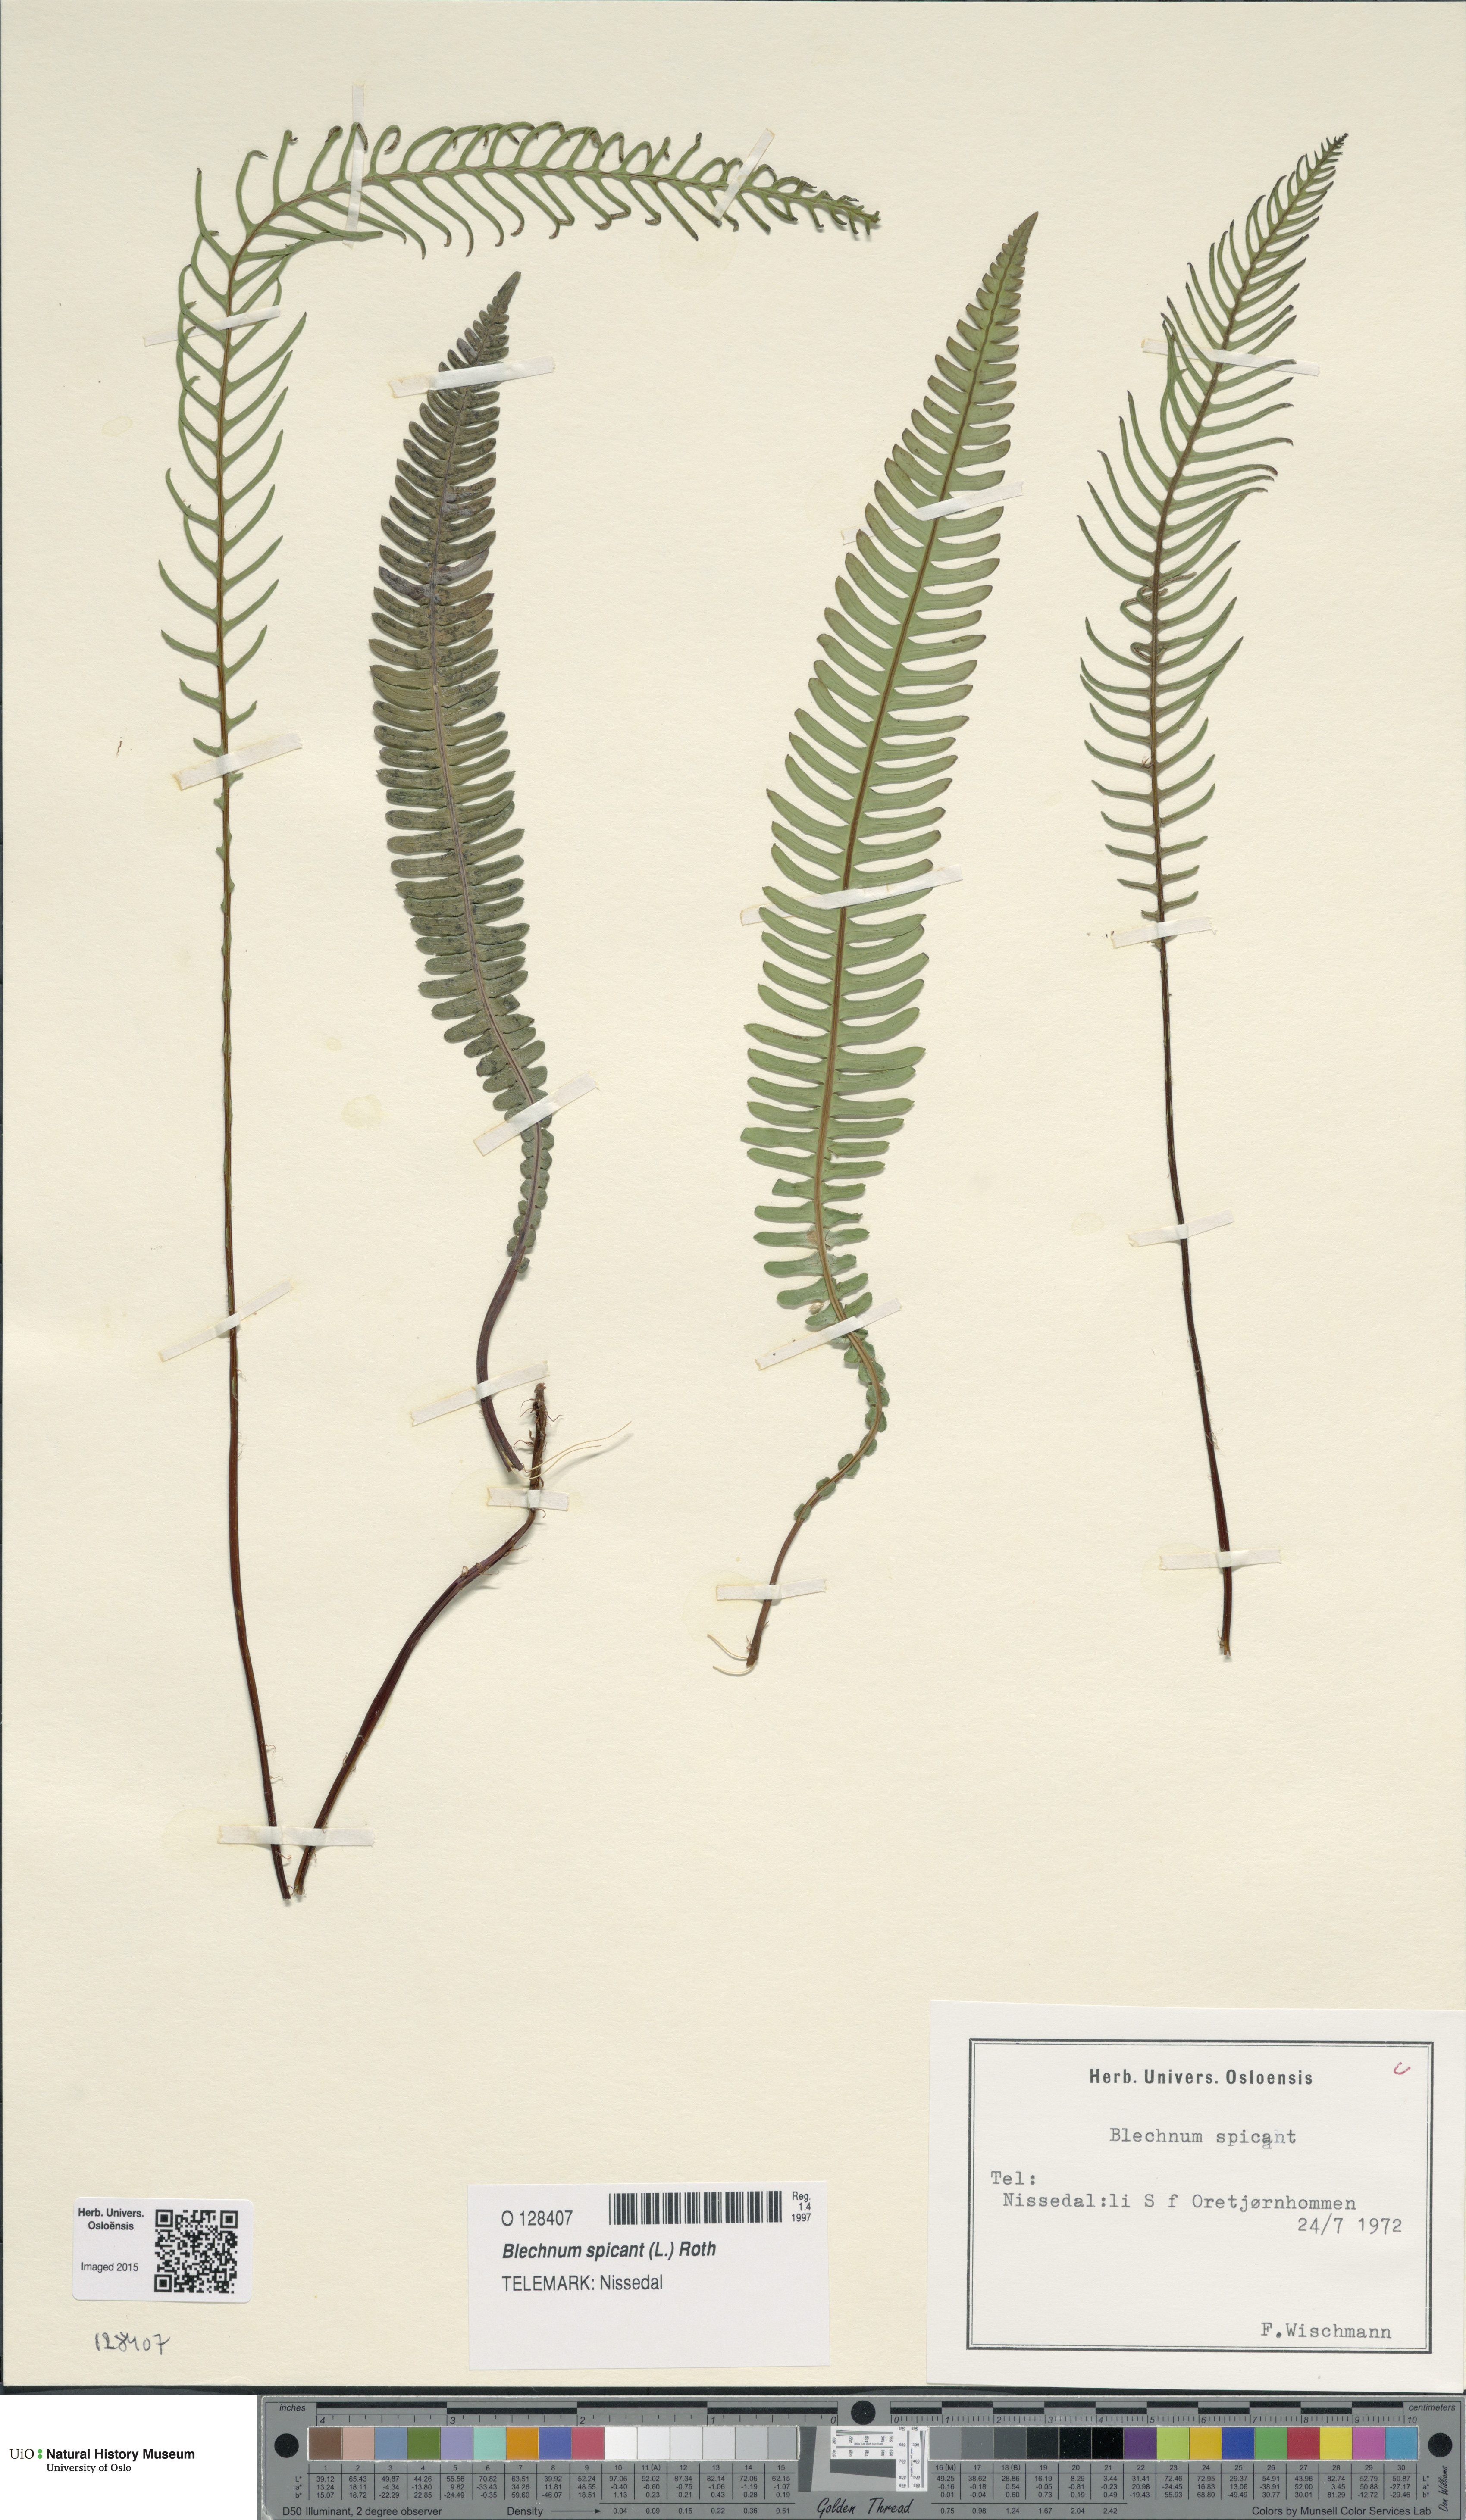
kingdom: Plantae
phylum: Tracheophyta
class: Polypodiopsida
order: Polypodiales
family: Blechnaceae
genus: Struthiopteris
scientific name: Struthiopteris spicant
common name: Deer fern
